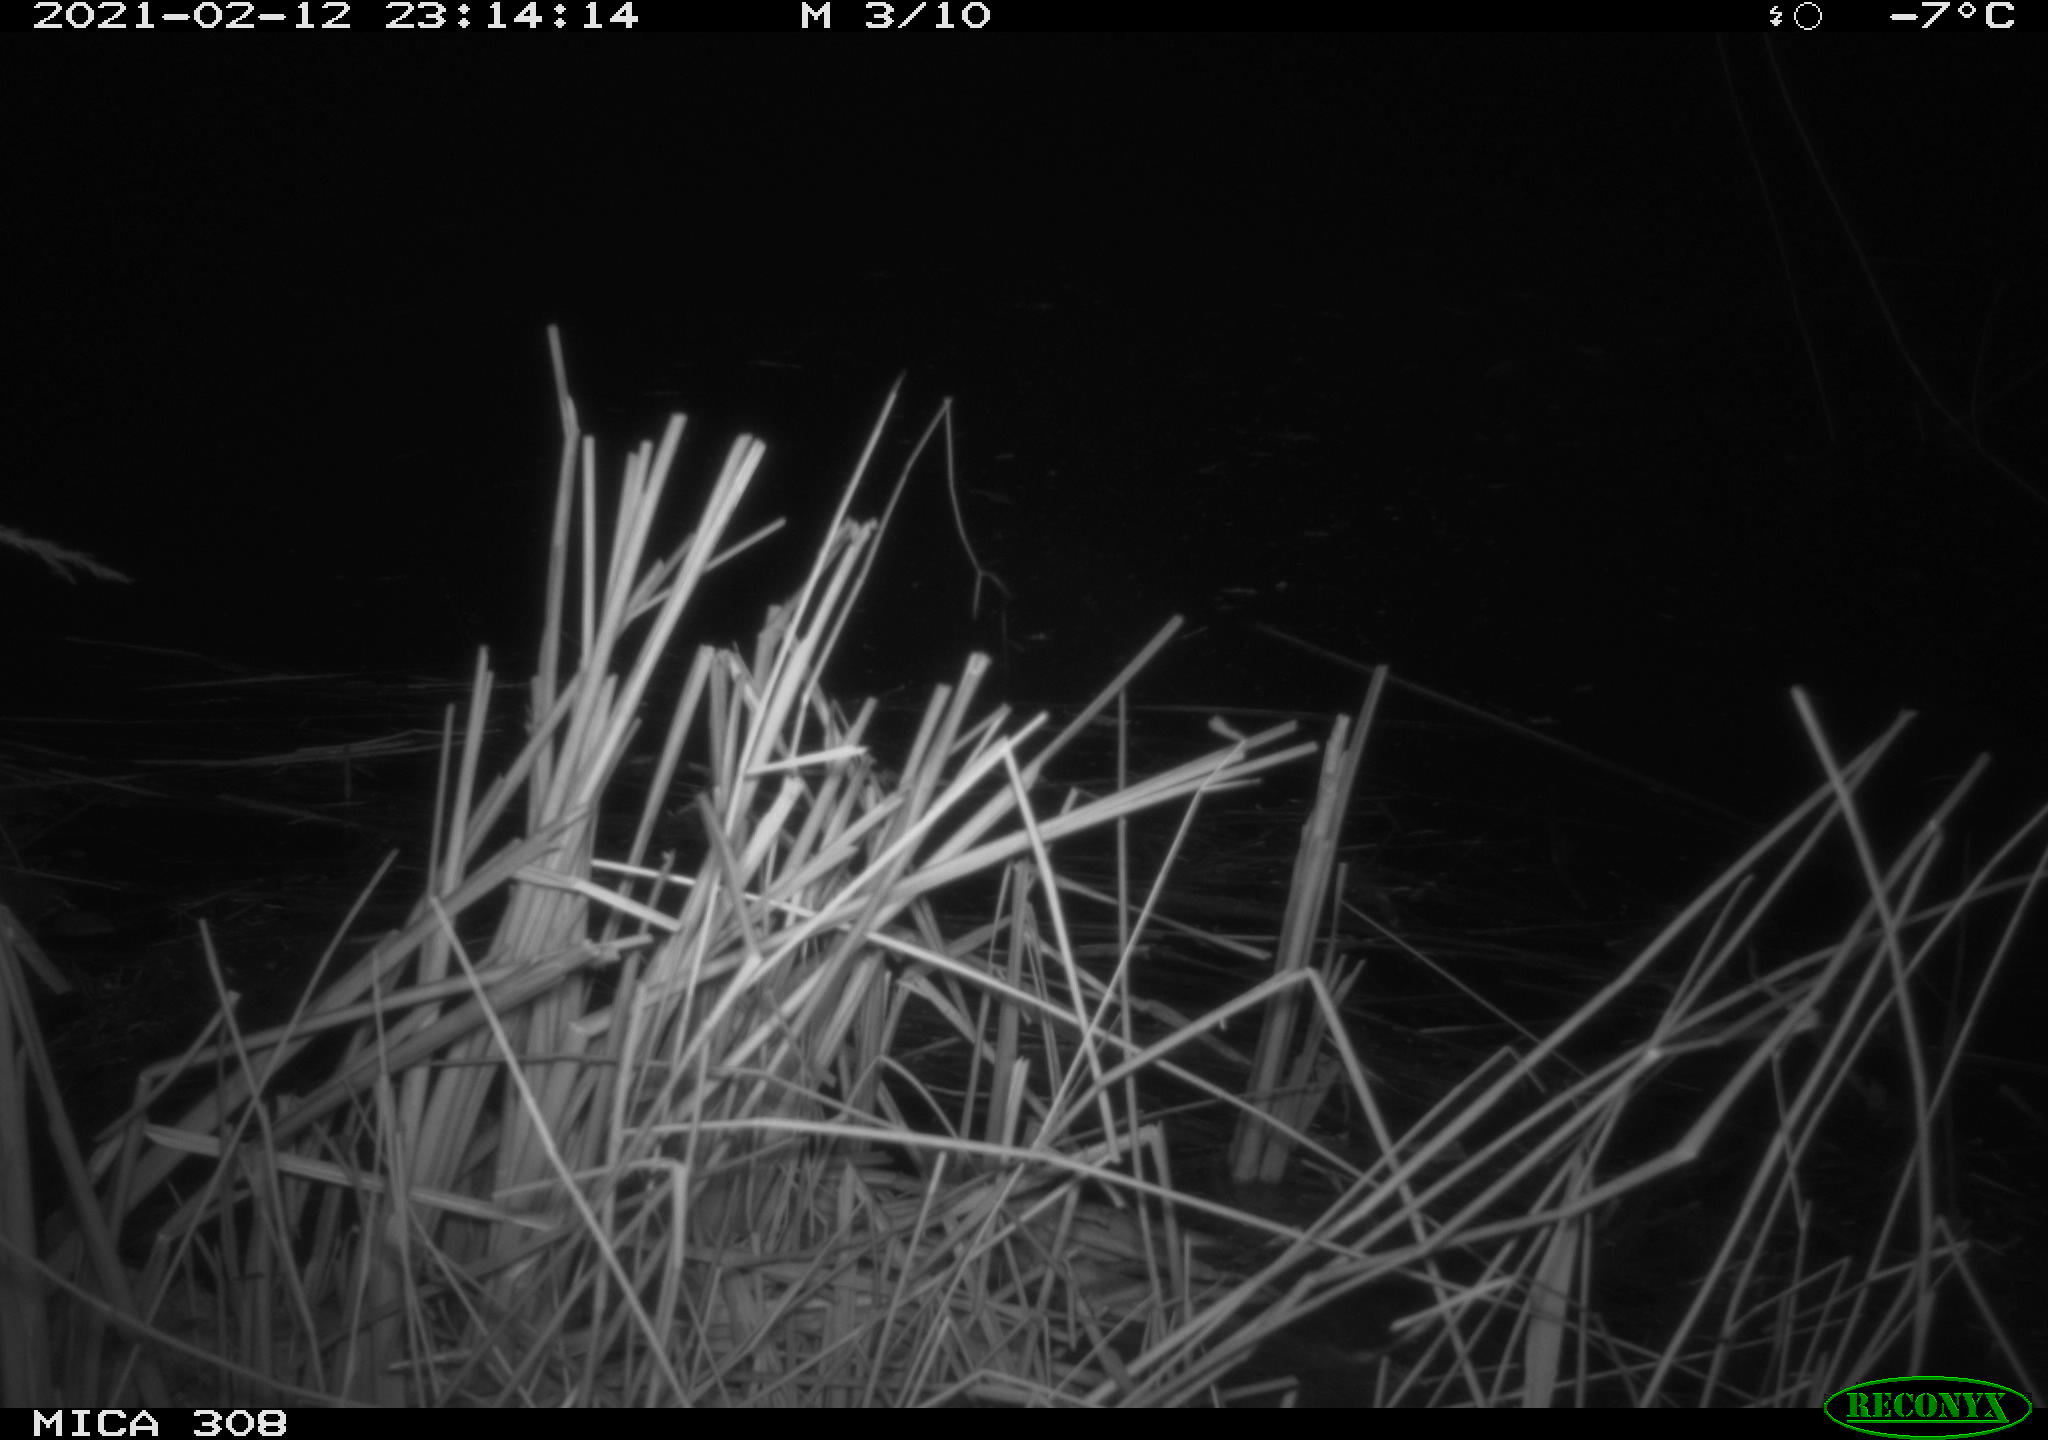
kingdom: Animalia
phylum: Chordata
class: Mammalia
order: Carnivora
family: Mustelidae
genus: Martes
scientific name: Martes foina
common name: Beech marten
